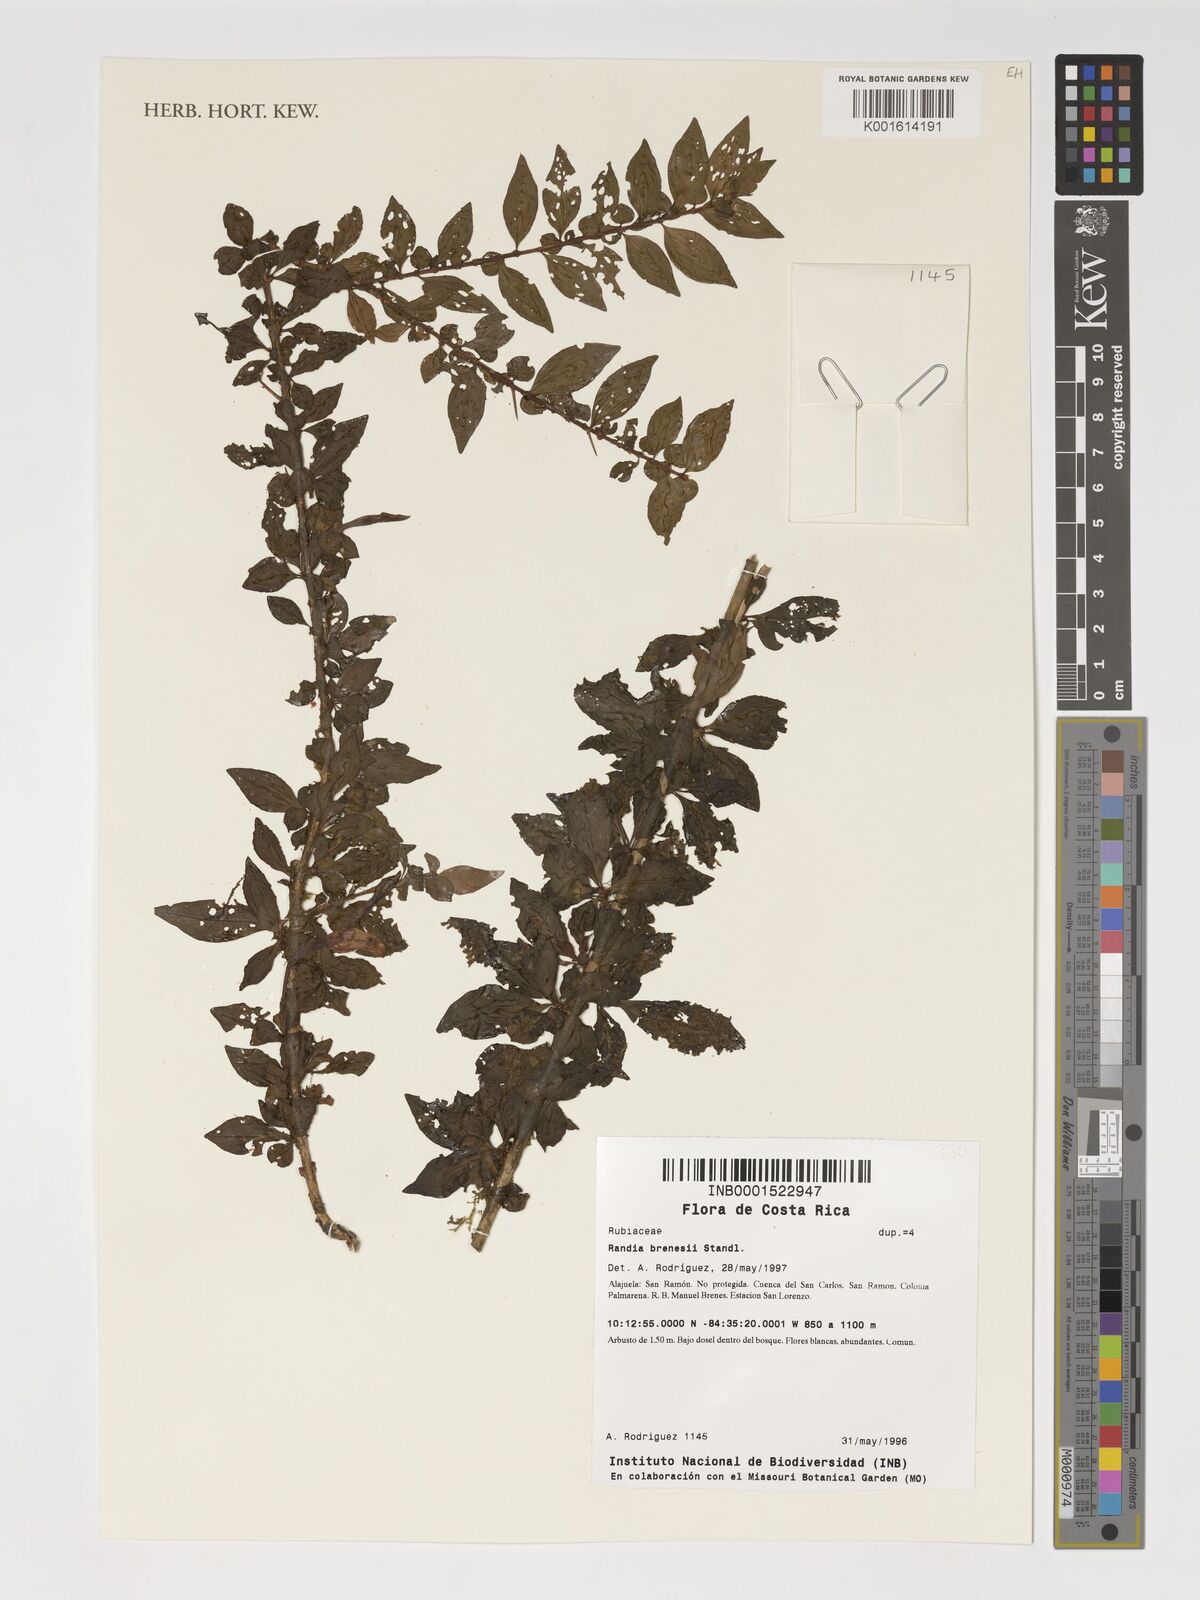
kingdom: Plantae
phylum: Tracheophyta
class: Magnoliopsida
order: Gentianales
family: Rubiaceae
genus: Randia
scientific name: Randia brenesii
